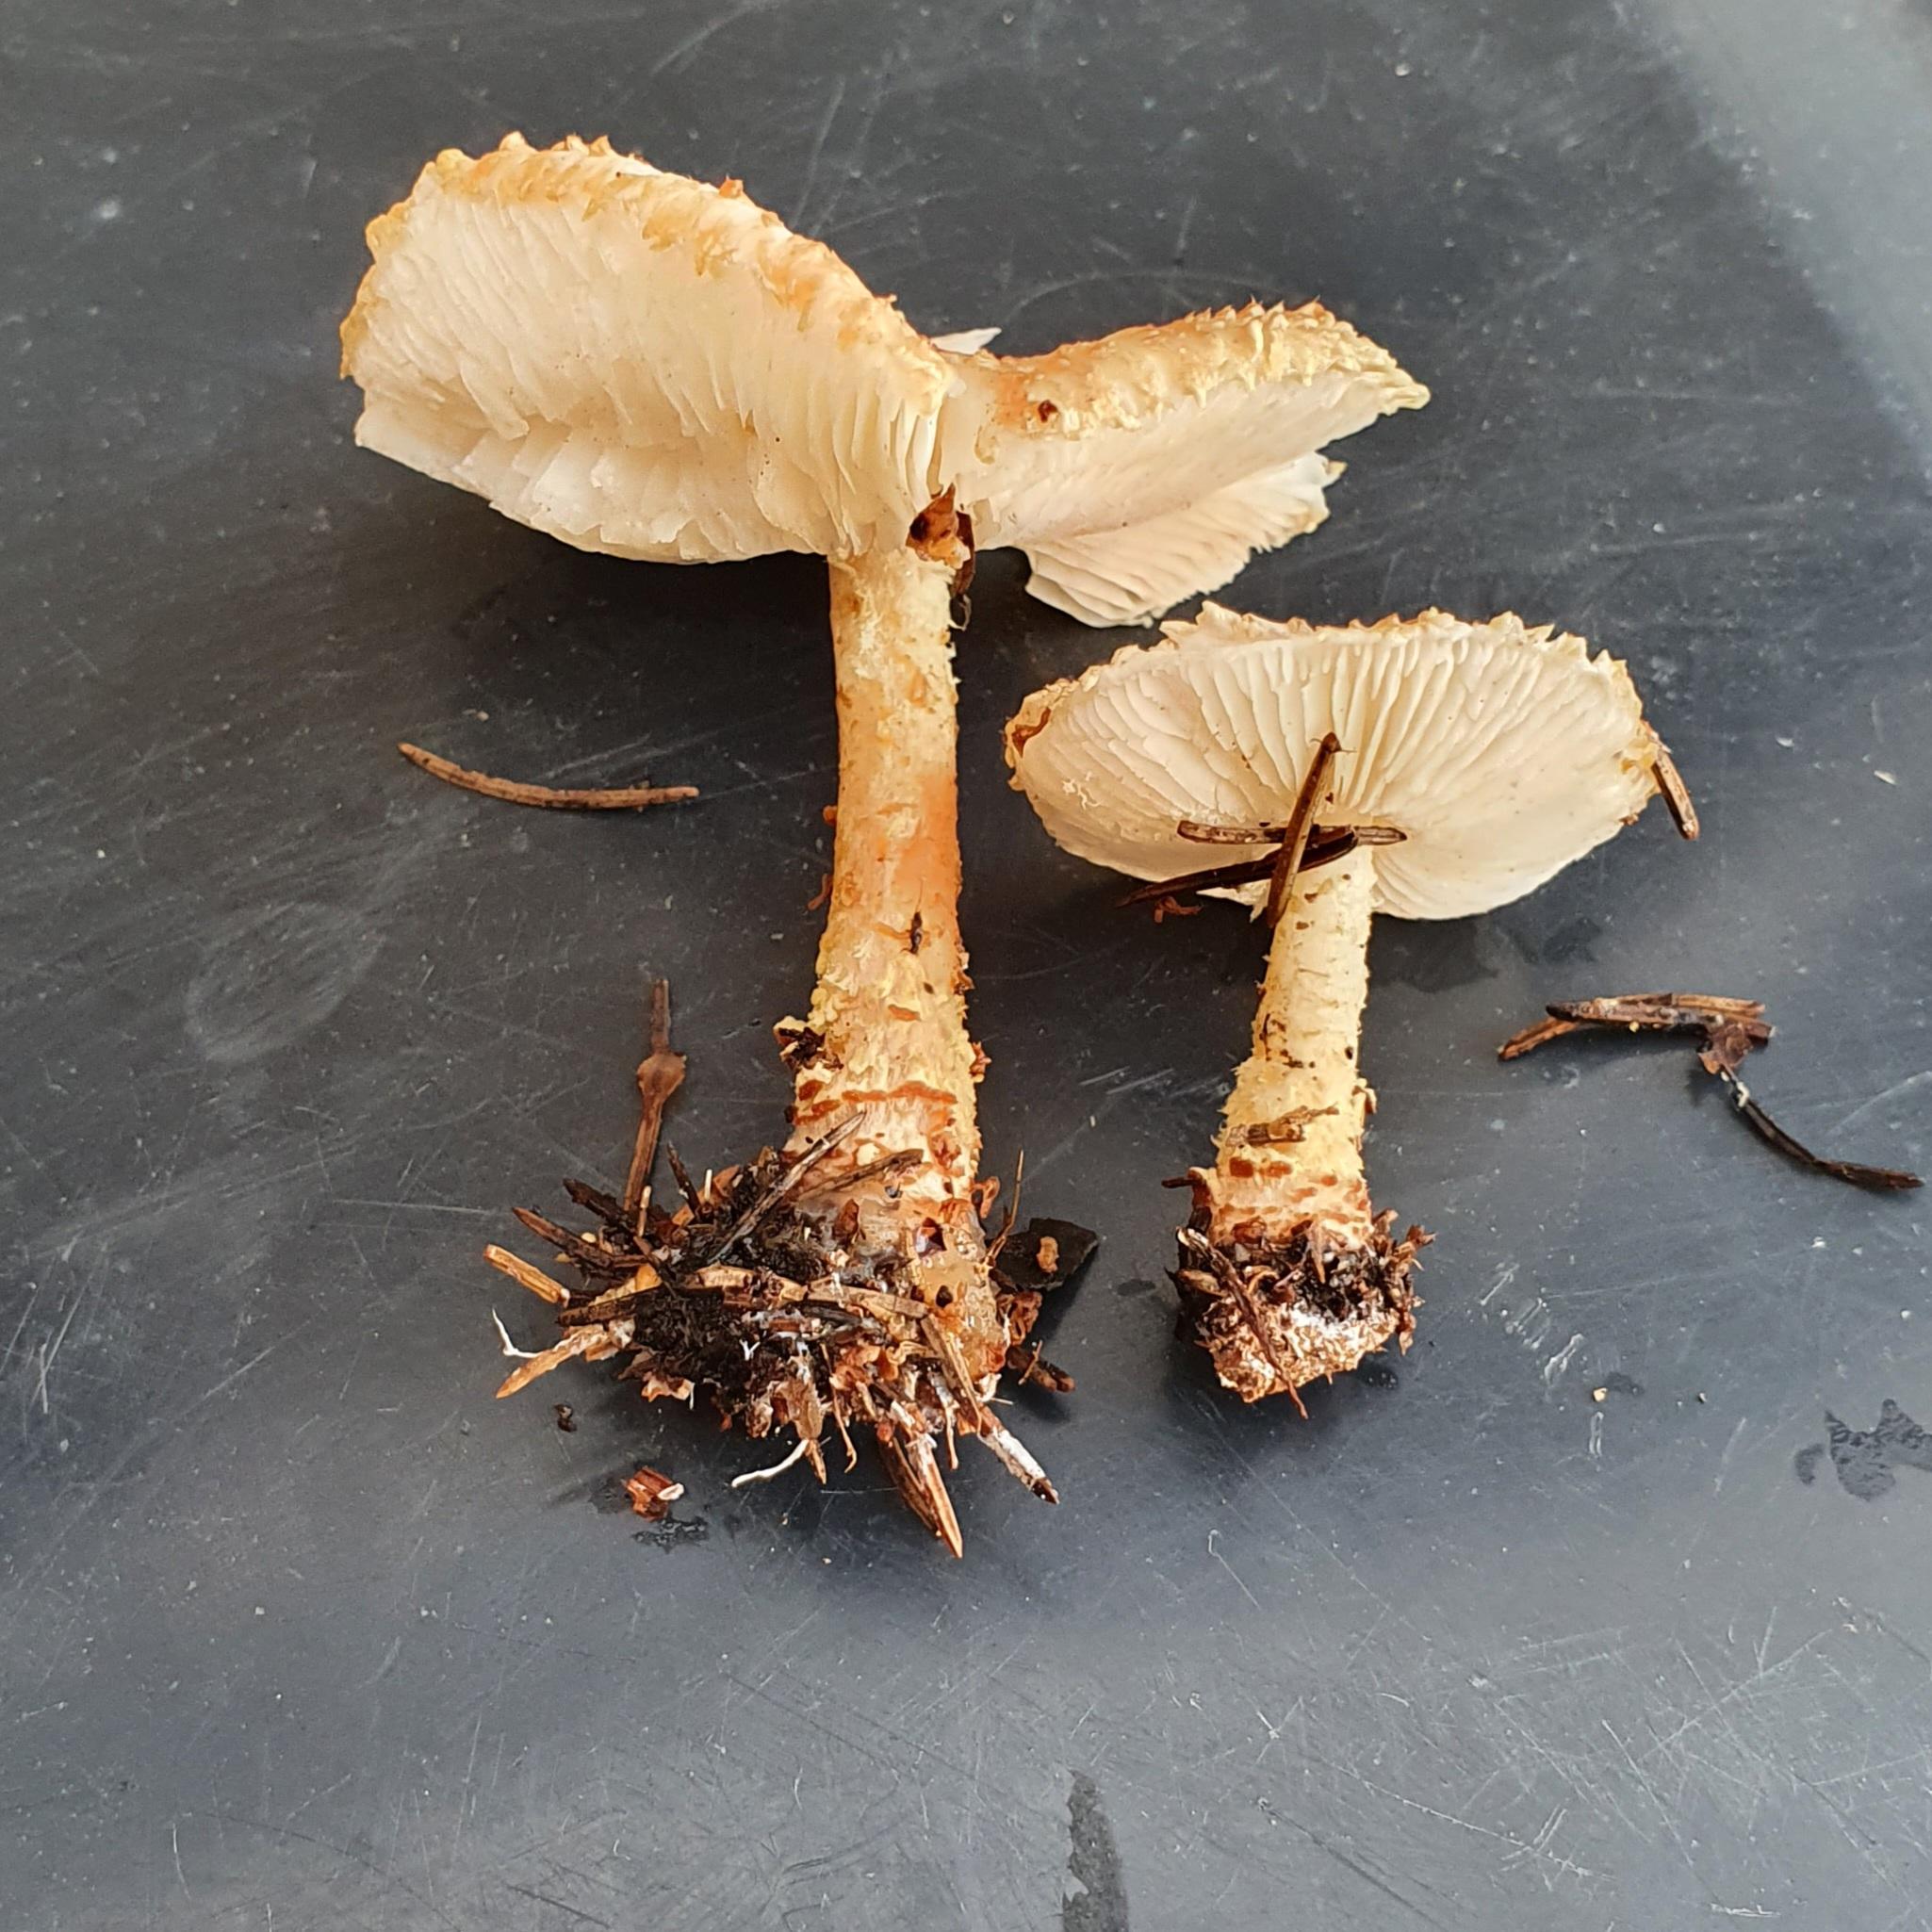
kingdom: Fungi
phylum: Basidiomycota
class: Agaricomycetes
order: Agaricales
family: Agaricaceae
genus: Lepiota
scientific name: Lepiota magnispora
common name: gulfnugget parasolhat
